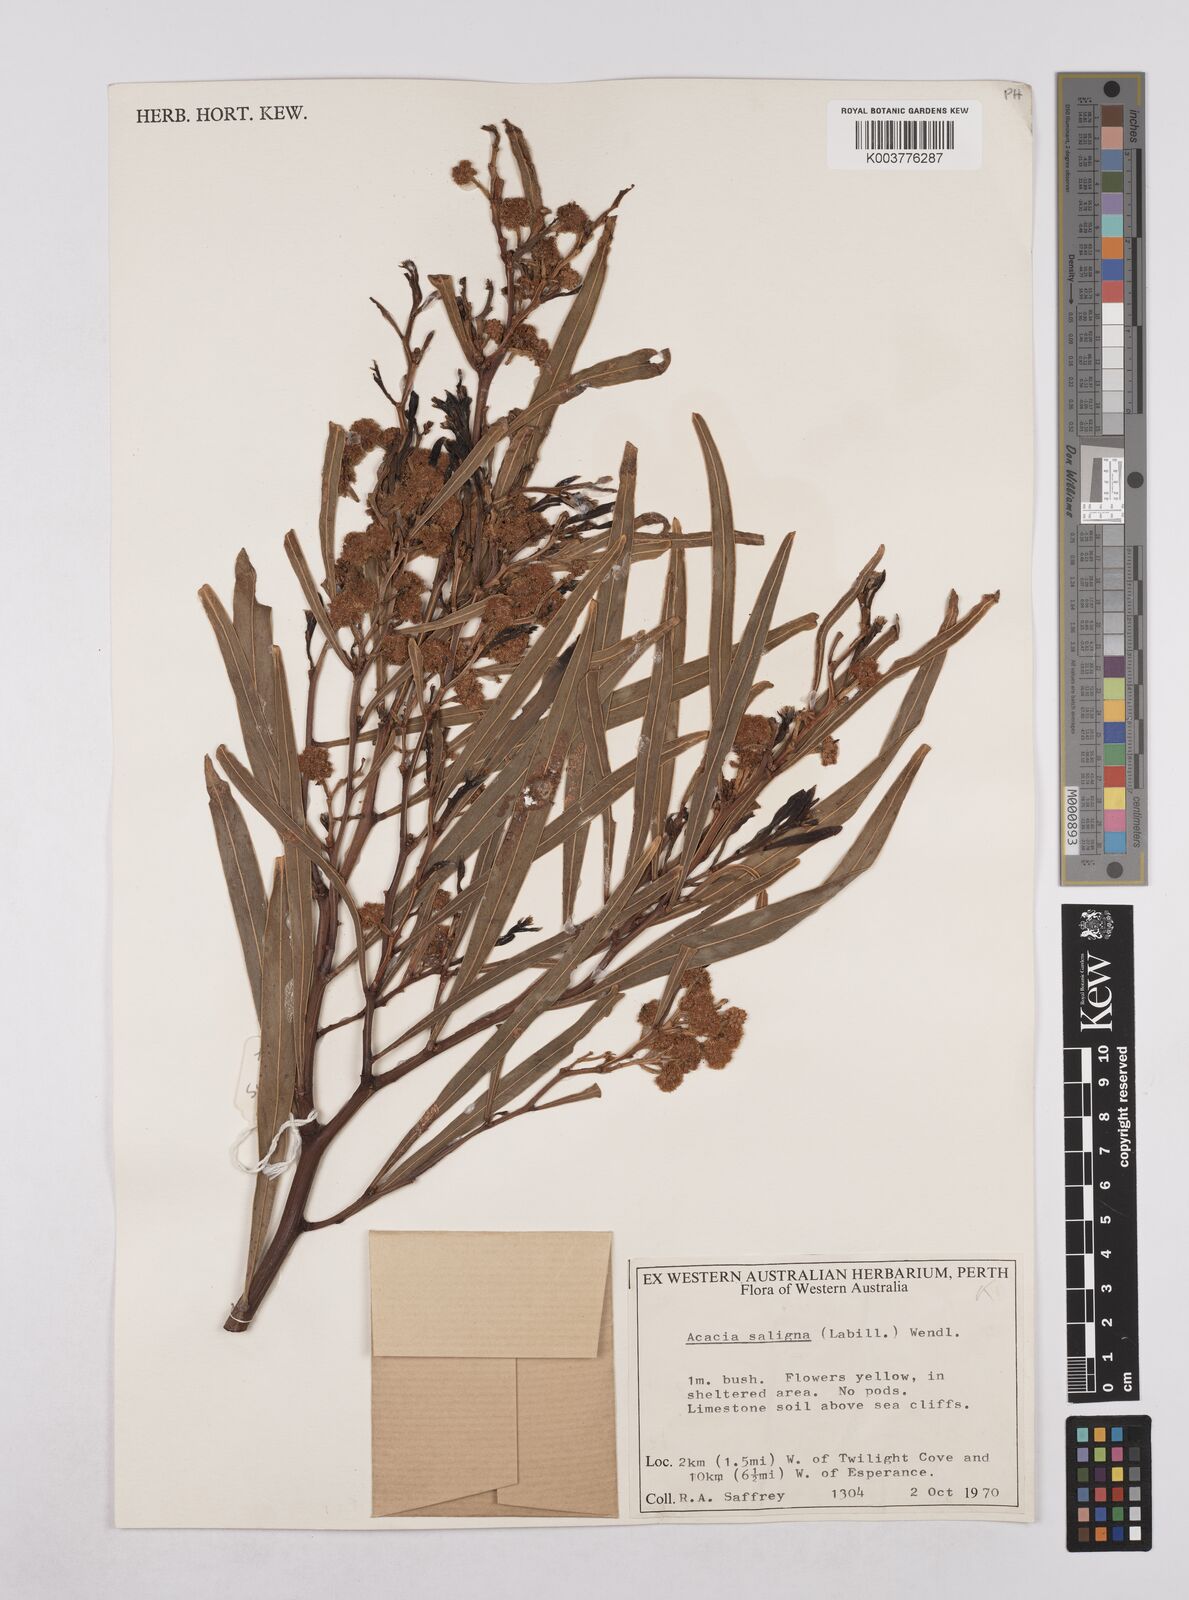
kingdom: Plantae
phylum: Tracheophyta
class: Magnoliopsida
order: Fabales
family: Fabaceae
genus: Acacia
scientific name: Acacia saligna
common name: Orange wattle
